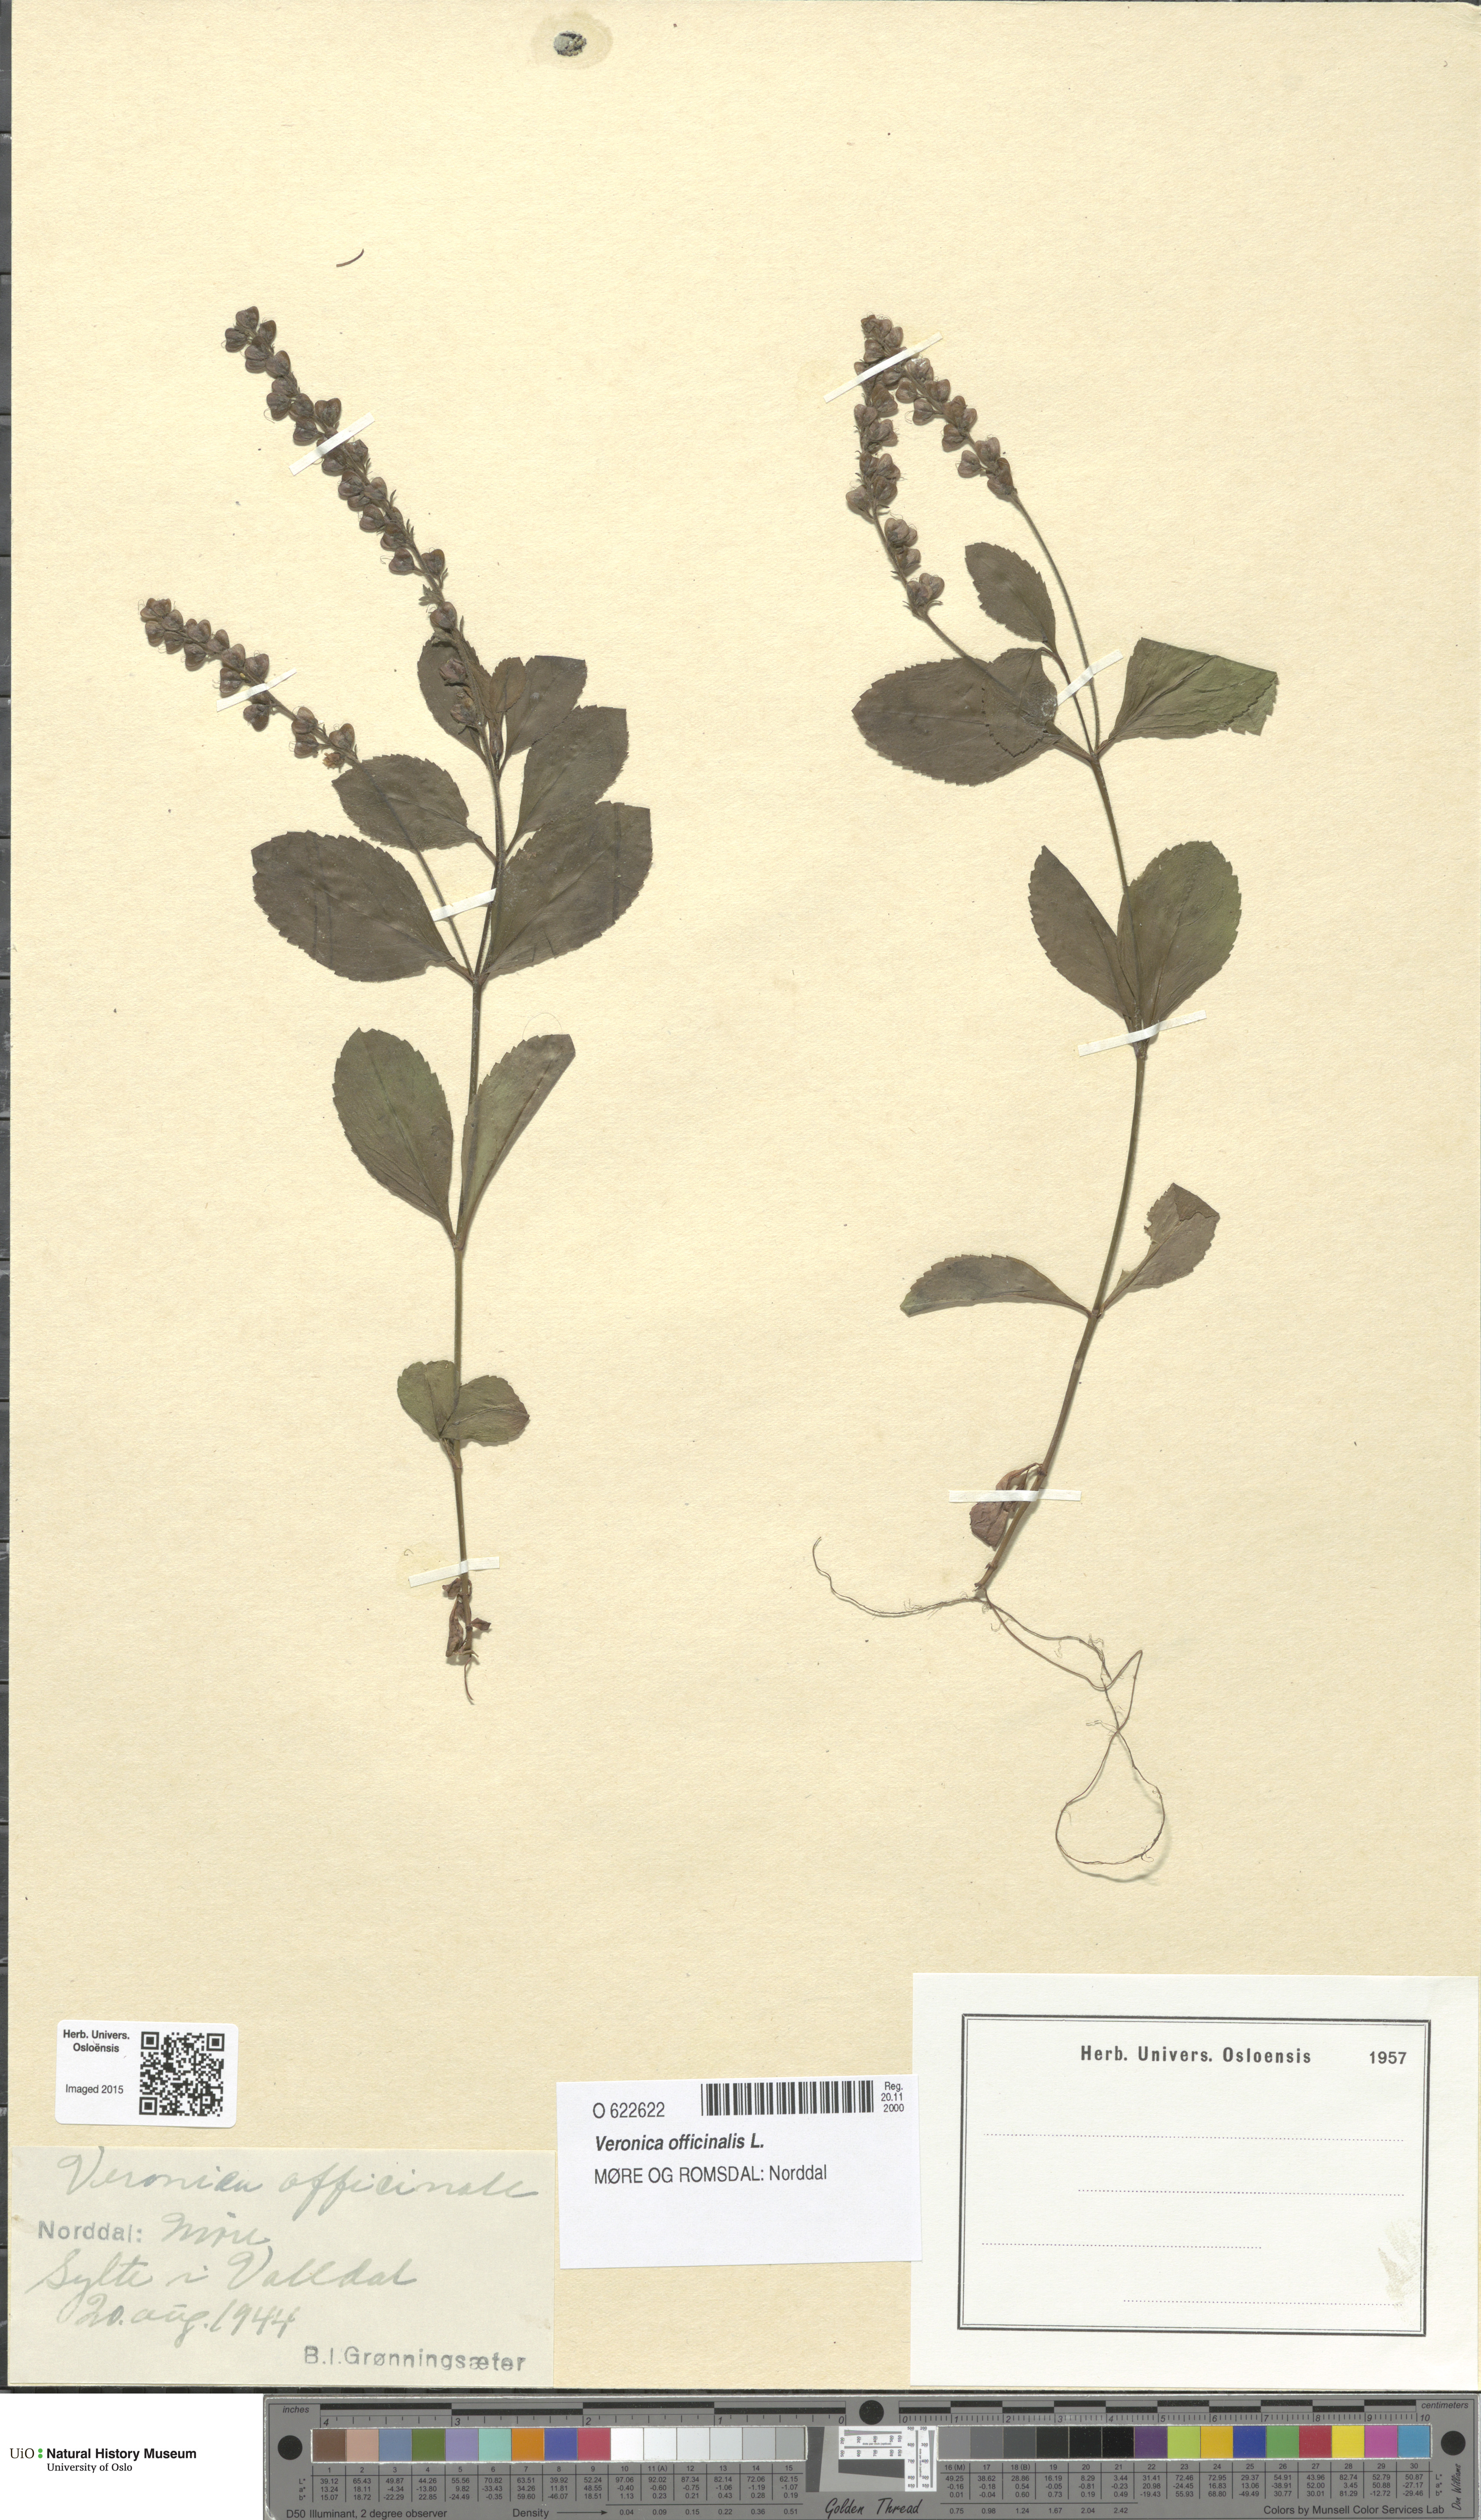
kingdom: Plantae
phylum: Tracheophyta
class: Magnoliopsida
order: Lamiales
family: Plantaginaceae
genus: Veronica
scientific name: Veronica officinalis
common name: Common speedwell
